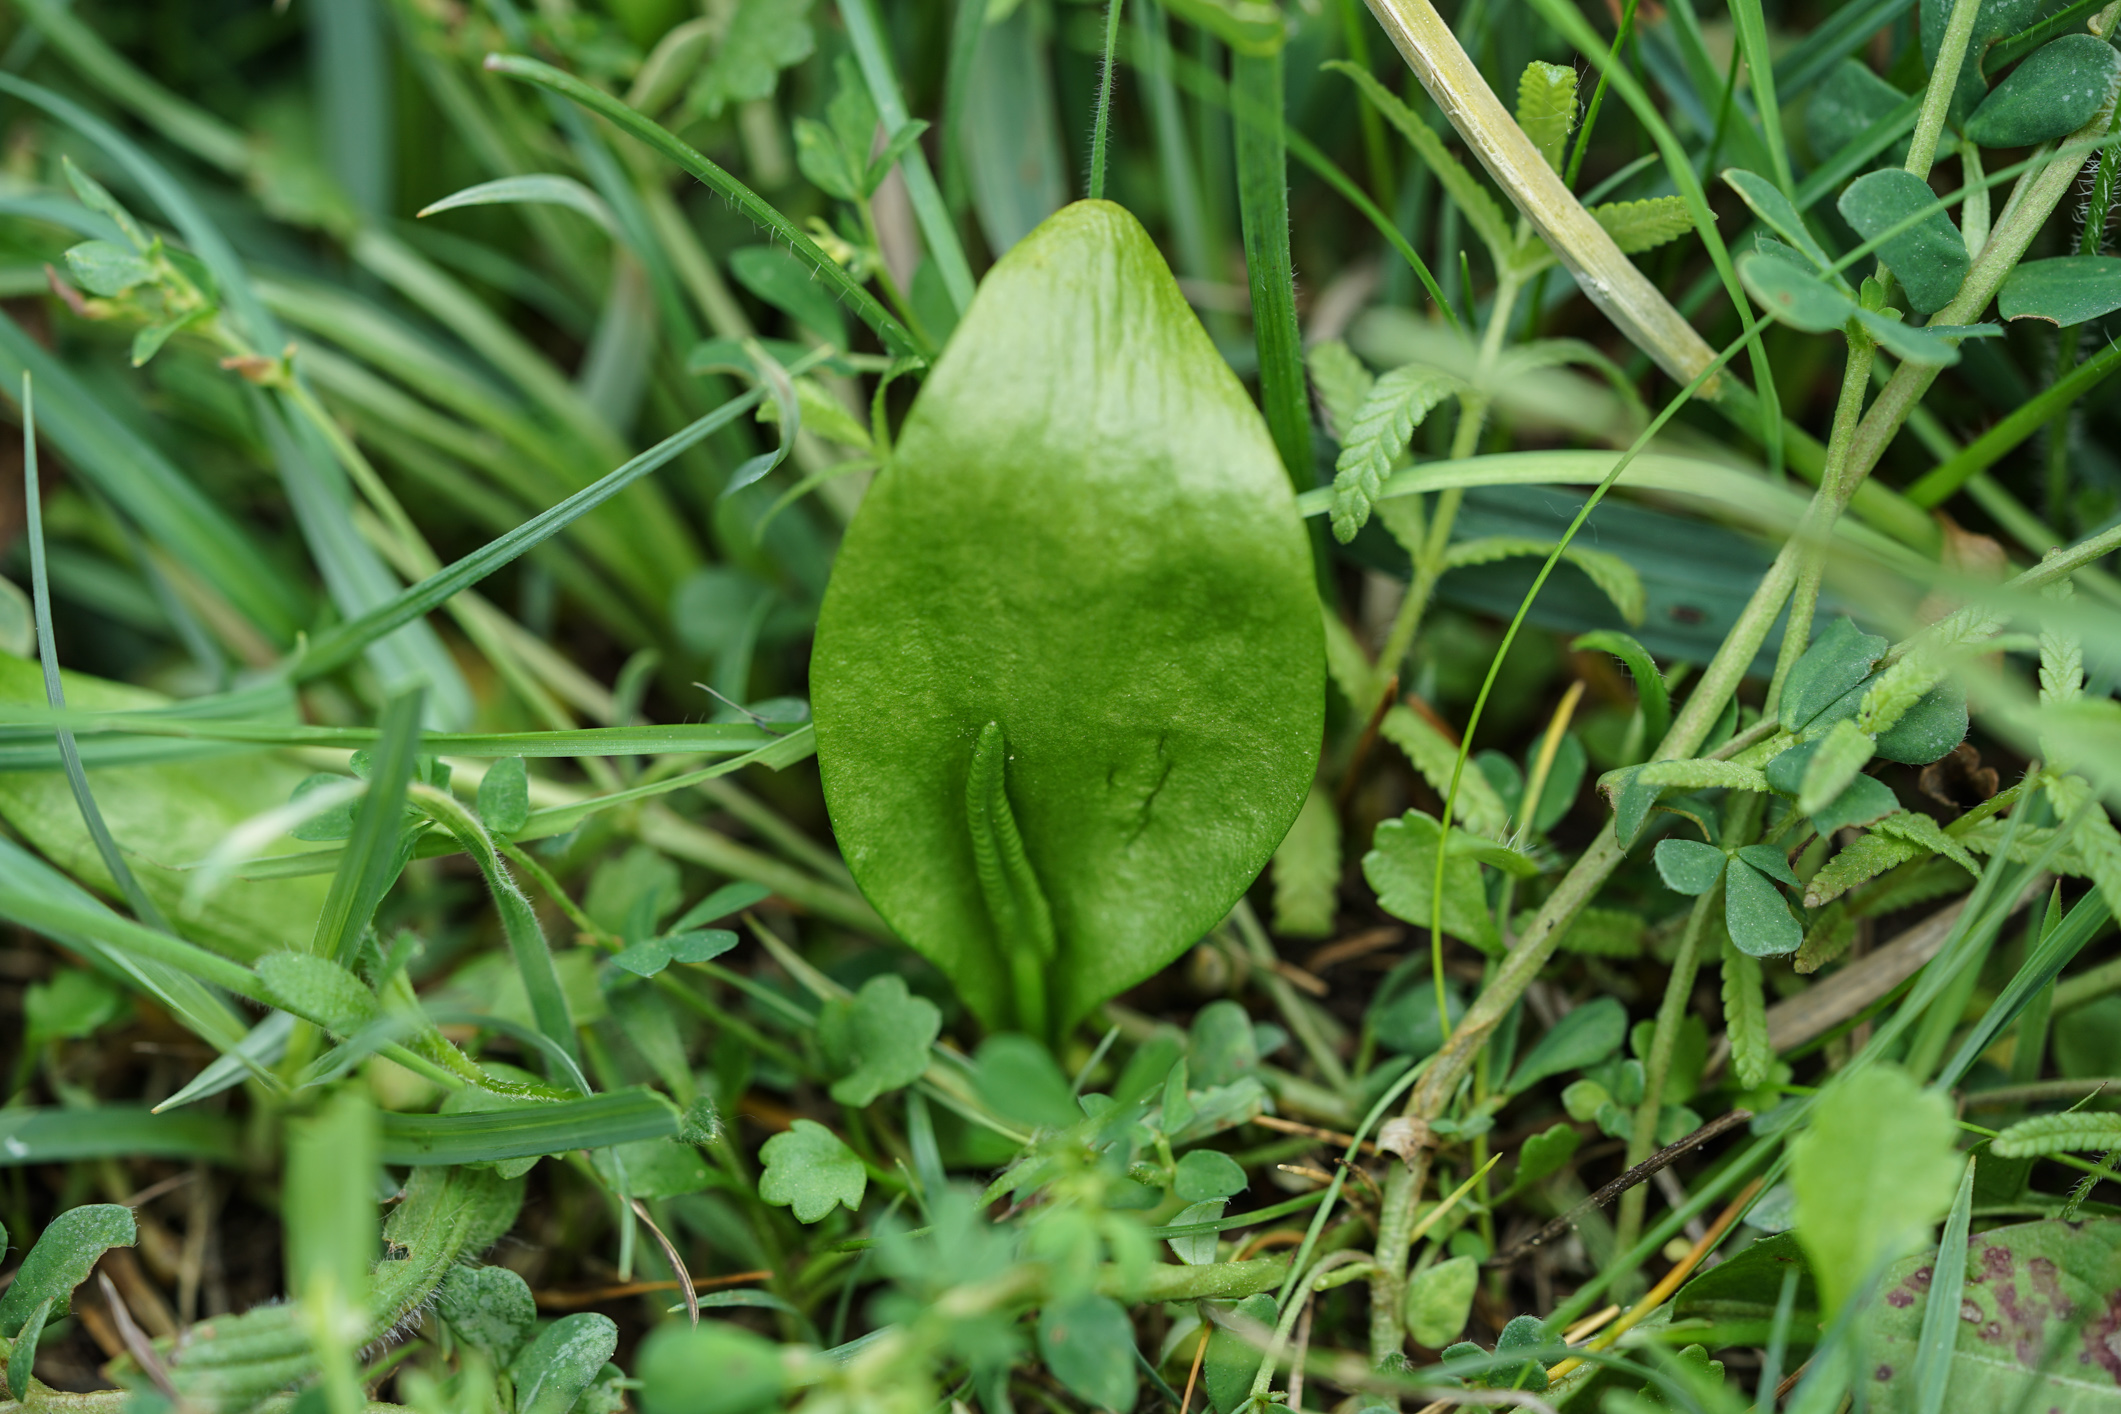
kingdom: Plantae
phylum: Tracheophyta
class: Polypodiopsida
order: Ophioglossales
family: Ophioglossaceae
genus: Ophioglossum
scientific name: Ophioglossum vulgatum
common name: Adder's-tongue
